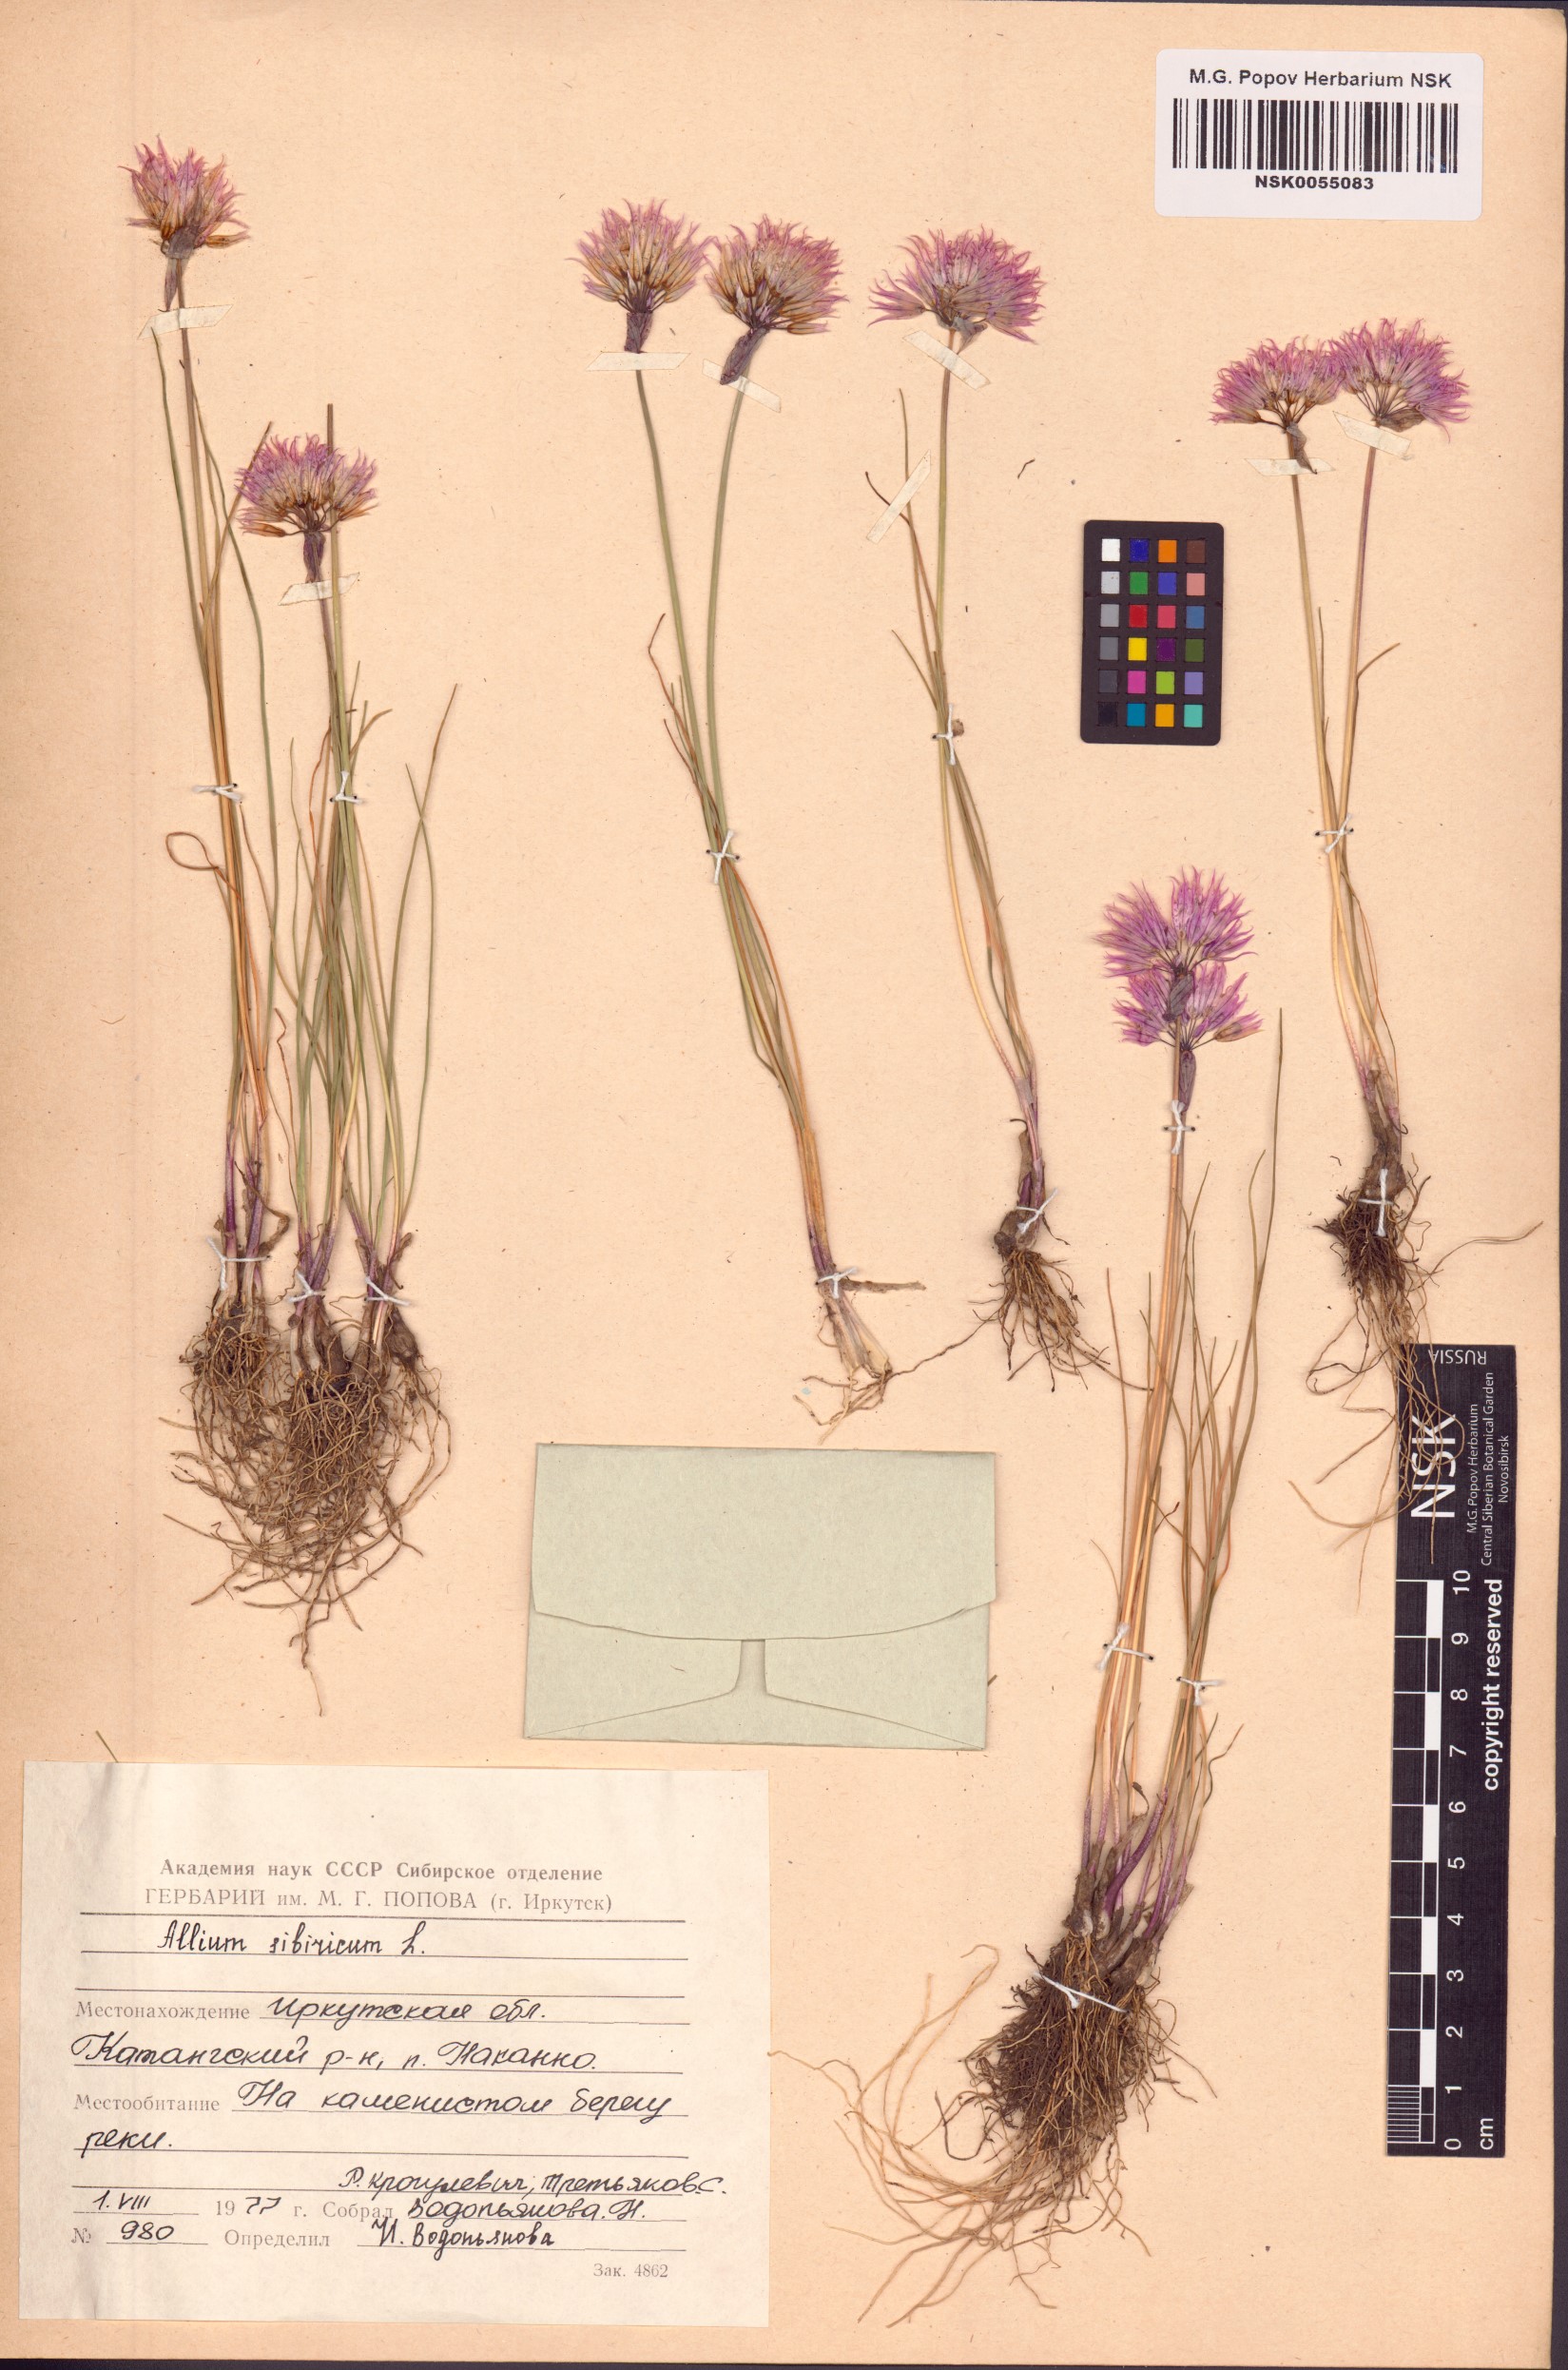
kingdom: Plantae
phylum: Tracheophyta
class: Liliopsida
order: Asparagales
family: Amaryllidaceae
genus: Allium
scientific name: Allium schoenoprasum
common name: Chives
